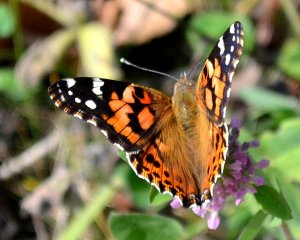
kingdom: Animalia
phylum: Arthropoda
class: Insecta
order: Lepidoptera
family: Nymphalidae
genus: Vanessa
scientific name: Vanessa cardui
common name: Painted Lady
